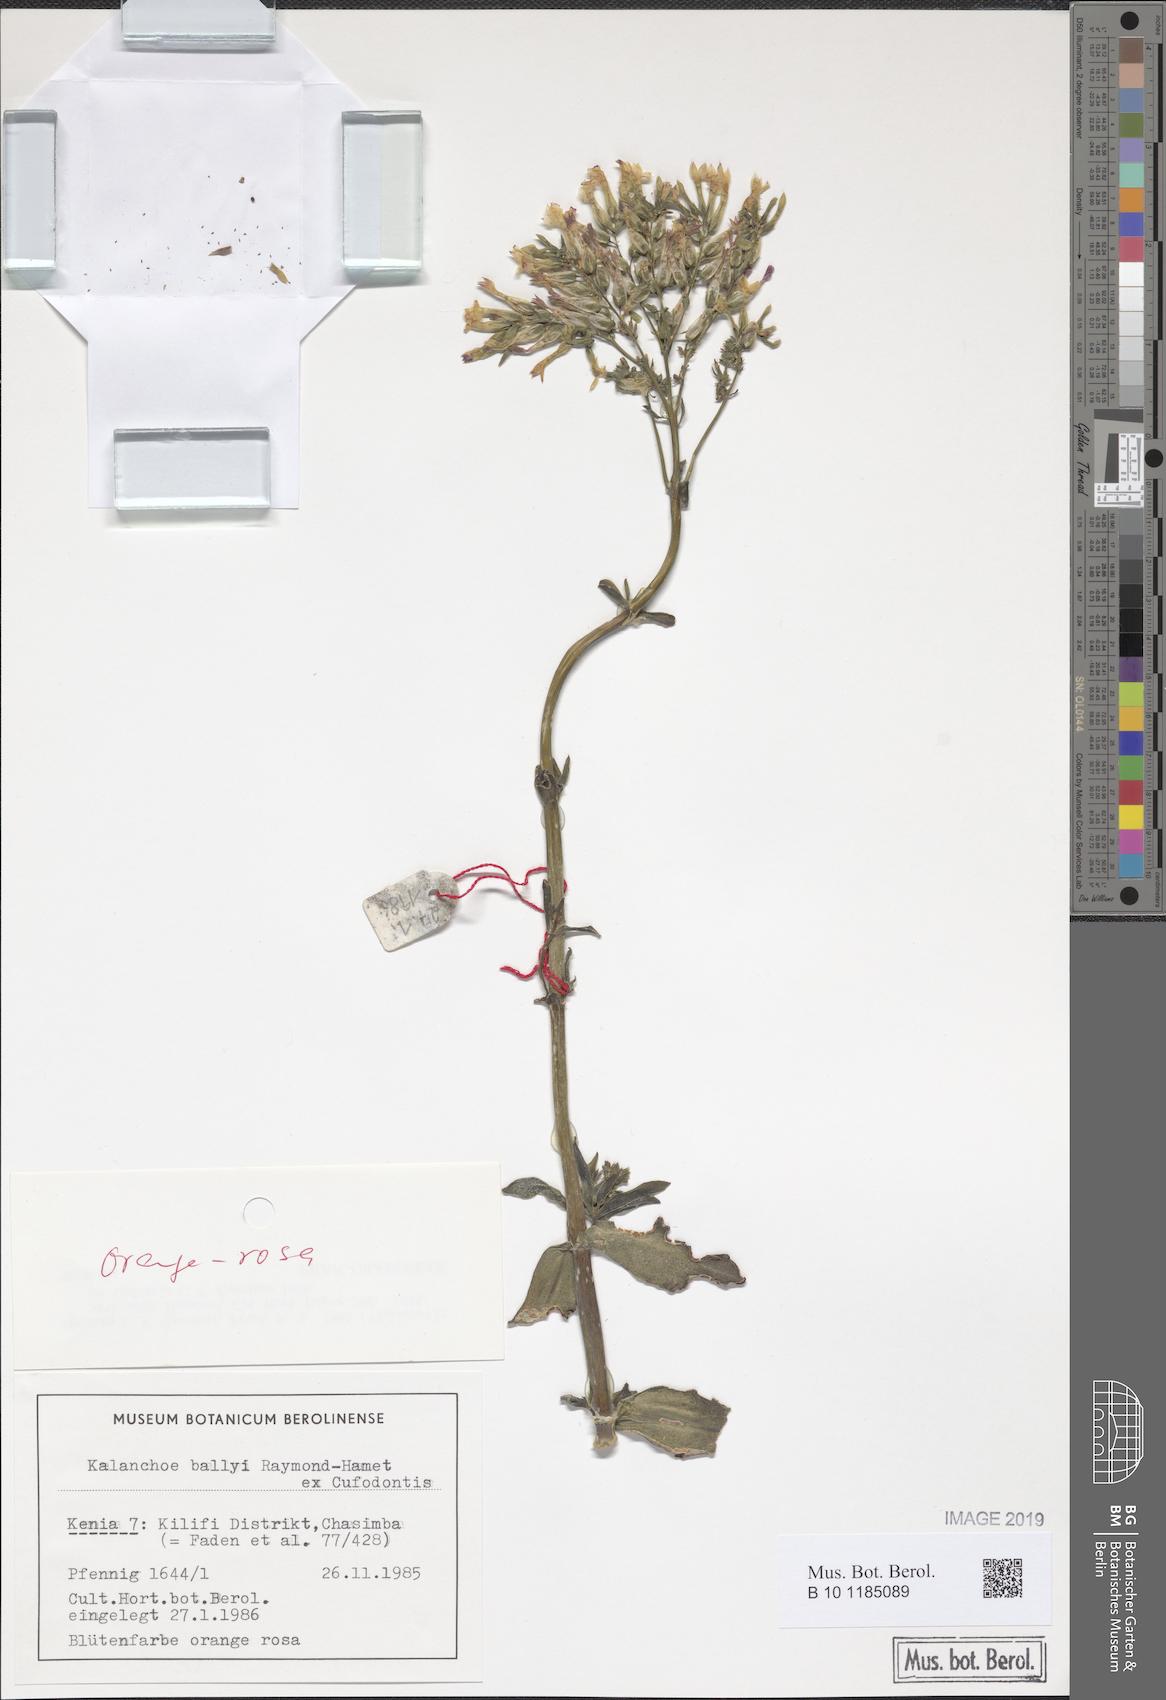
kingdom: Plantae
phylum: Tracheophyta
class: Magnoliopsida
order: Saxifragales
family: Crassulaceae
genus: Kalanchoe
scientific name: Kalanchoe ballyi
